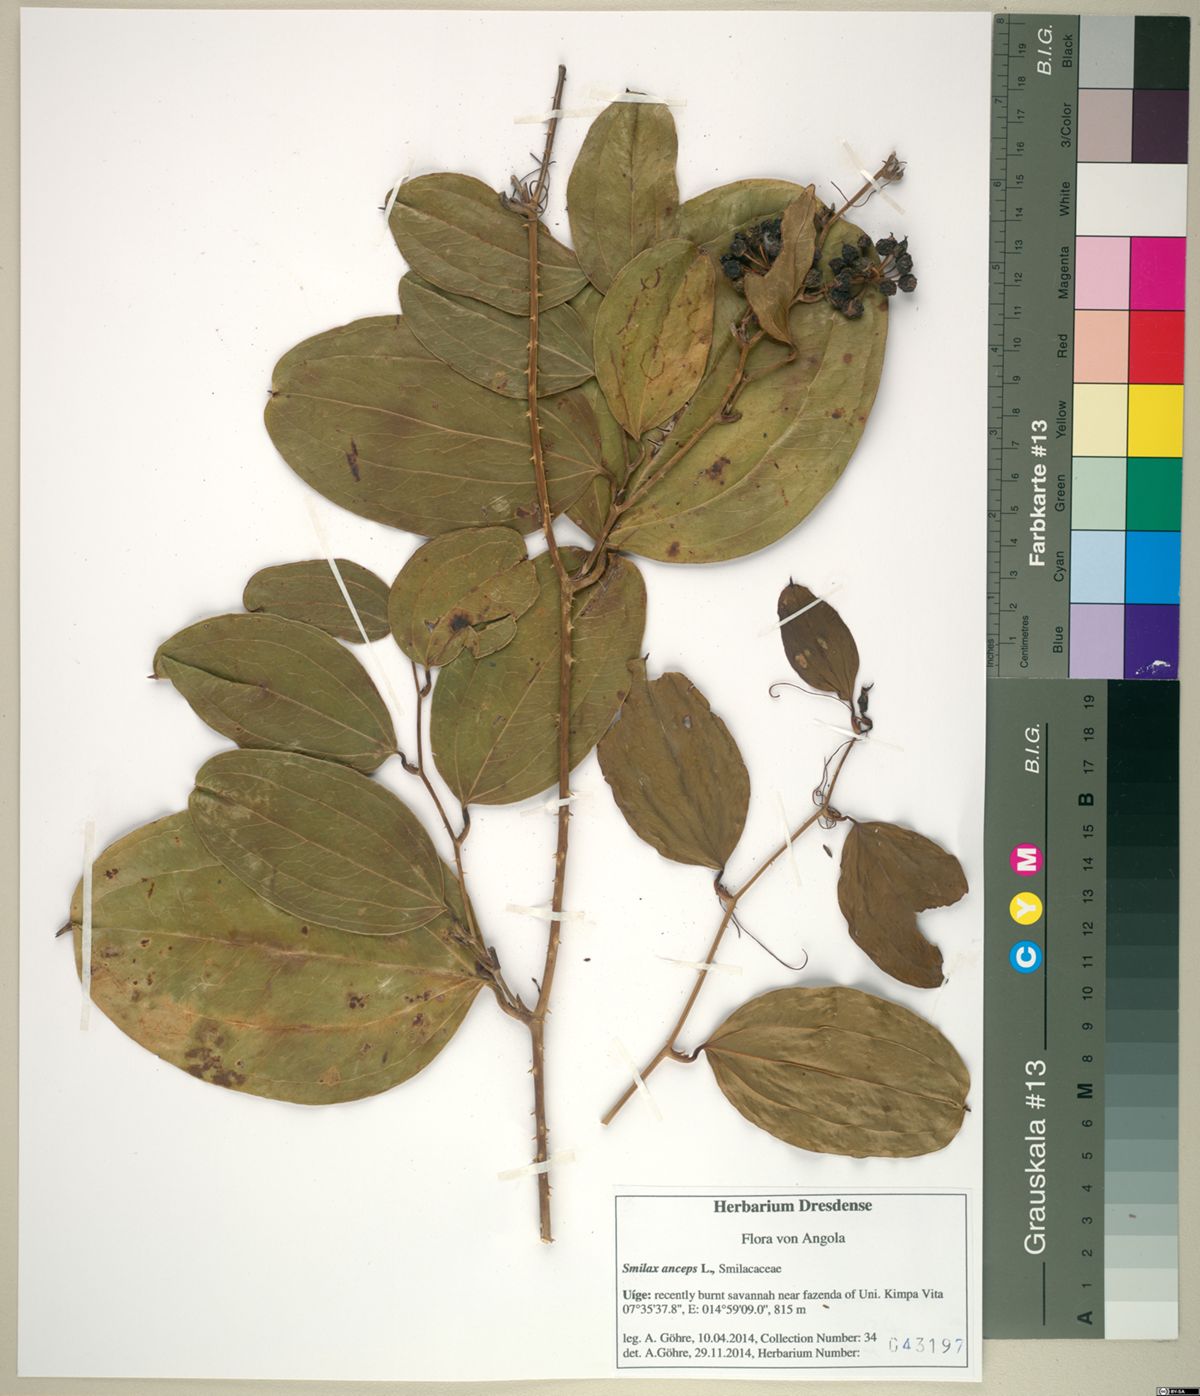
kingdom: Plantae
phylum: Tracheophyta
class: Liliopsida
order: Liliales
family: Smilacaceae
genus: Smilax
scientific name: Smilax anceps
